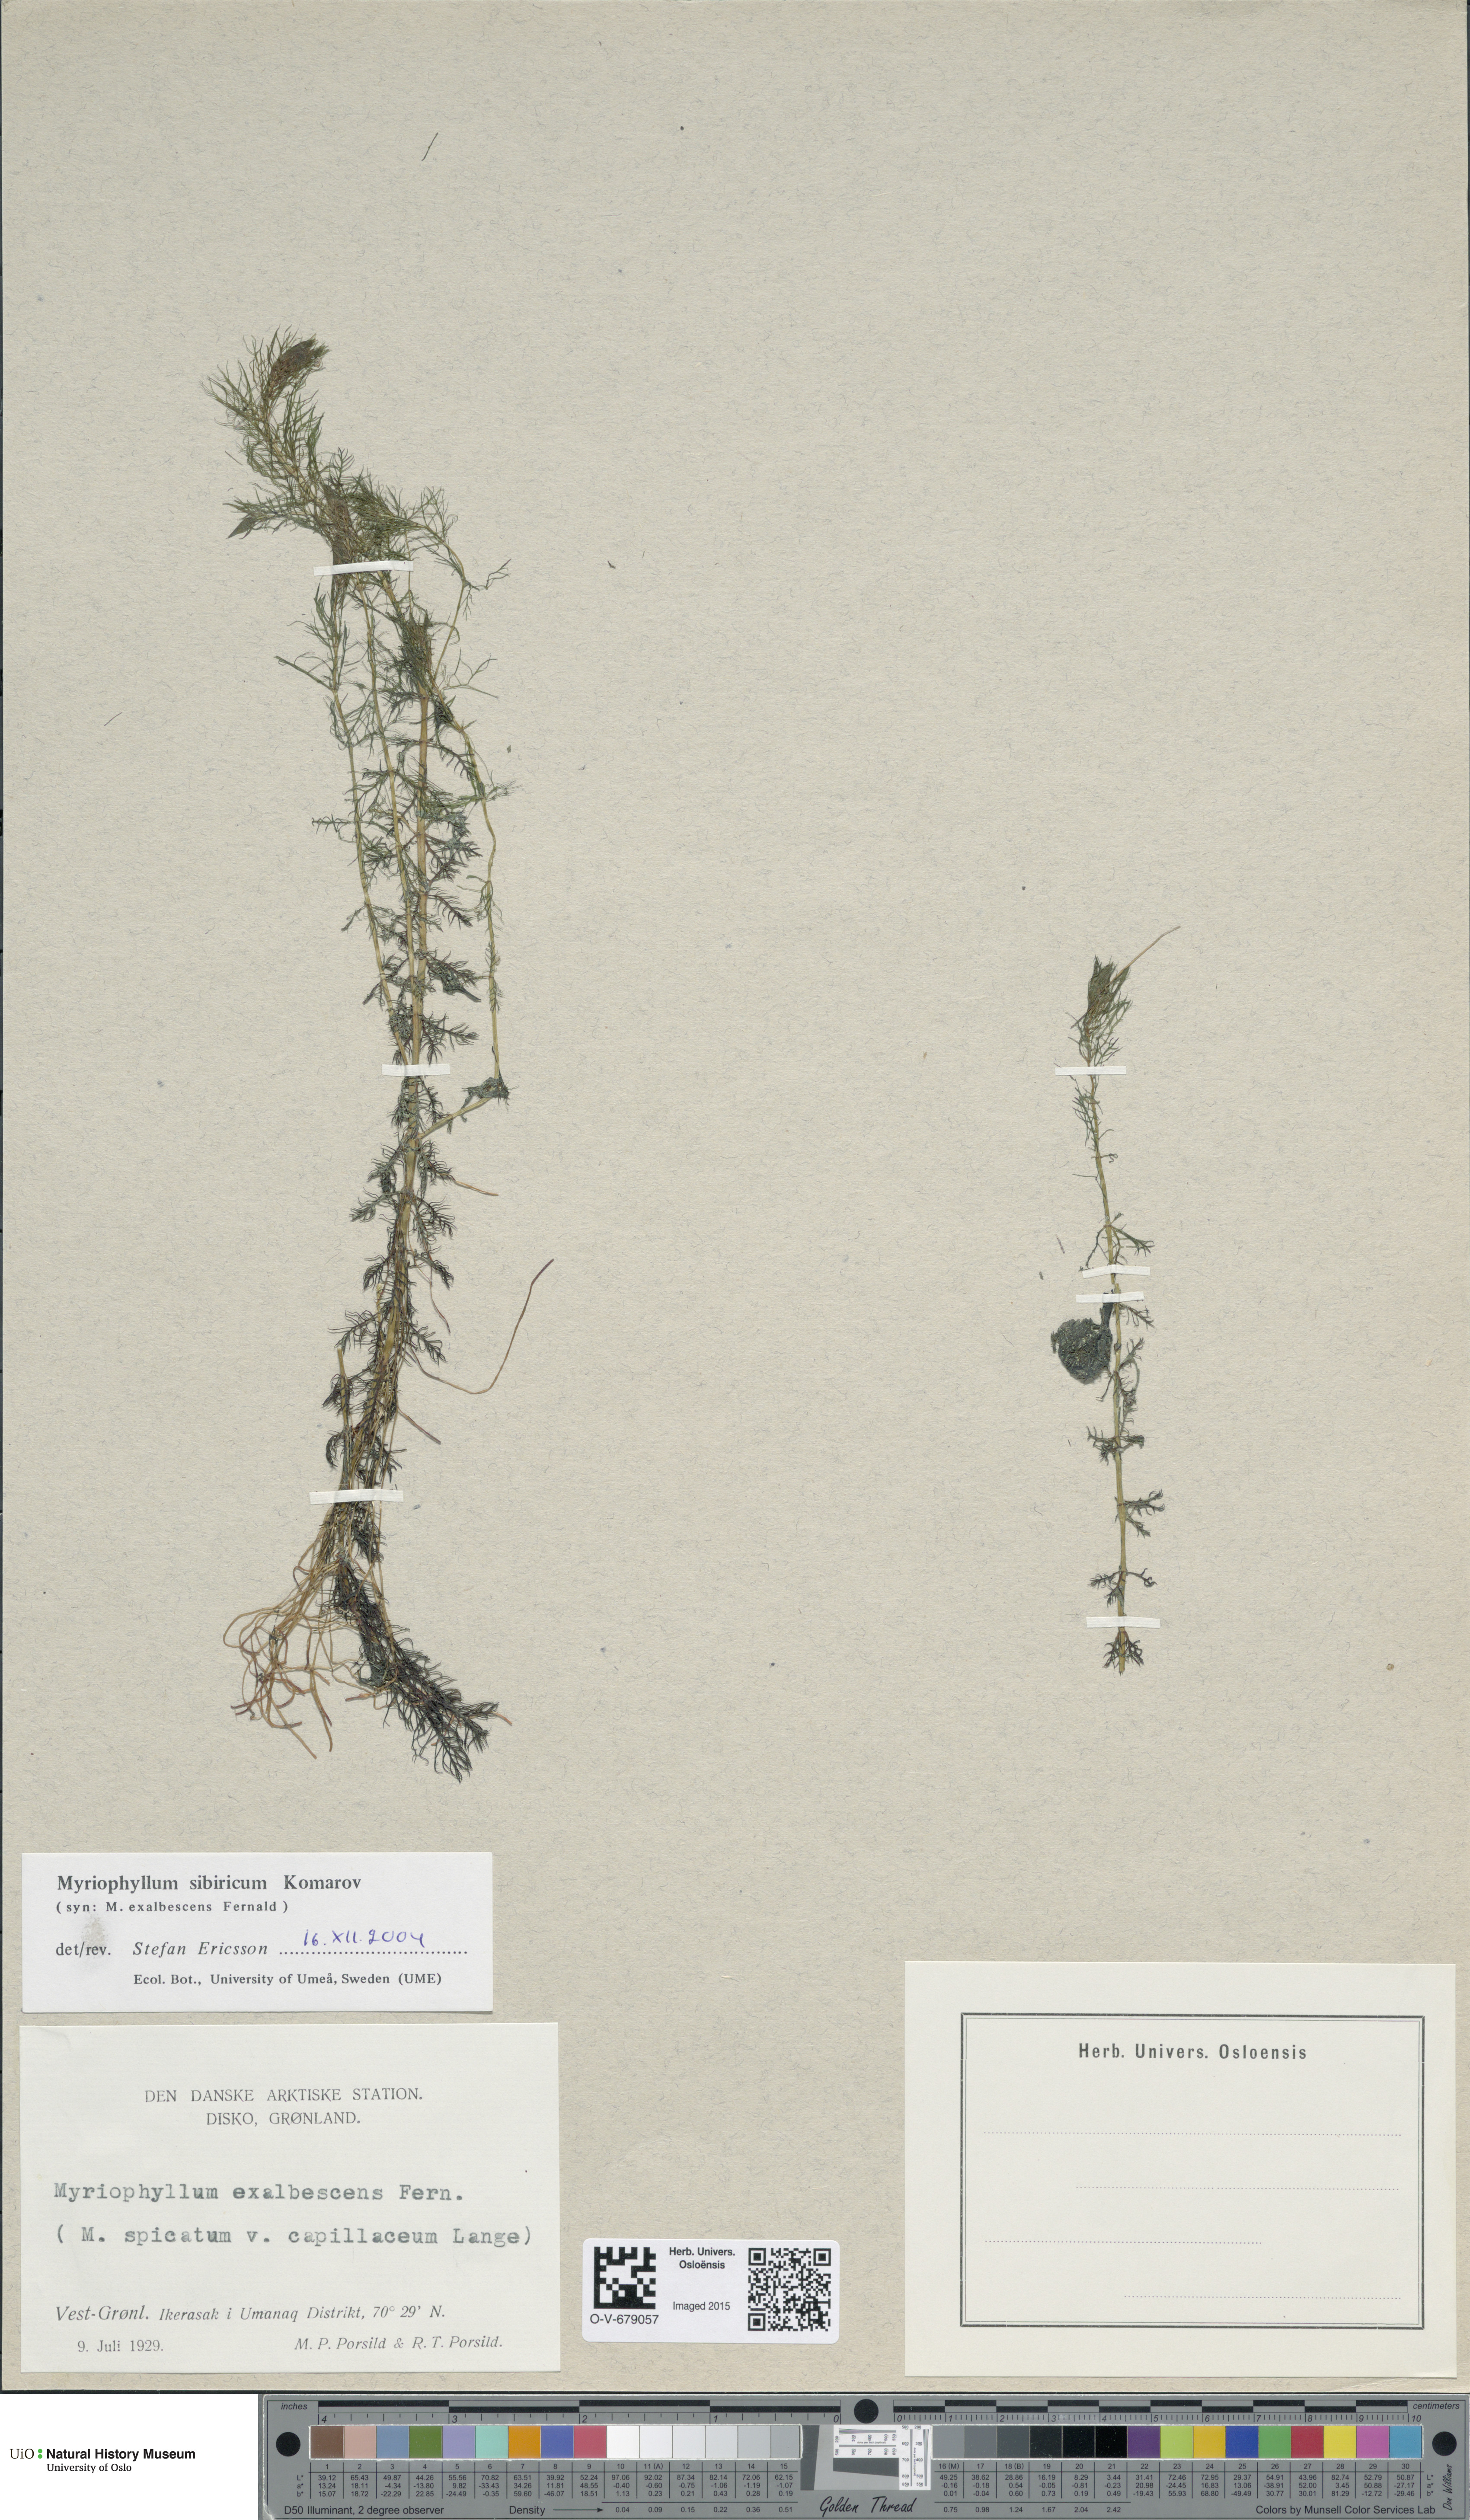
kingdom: Plantae
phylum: Tracheophyta
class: Magnoliopsida
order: Saxifragales
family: Haloragaceae
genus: Myriophyllum
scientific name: Myriophyllum sibiricum
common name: Siberian water-milfoil
